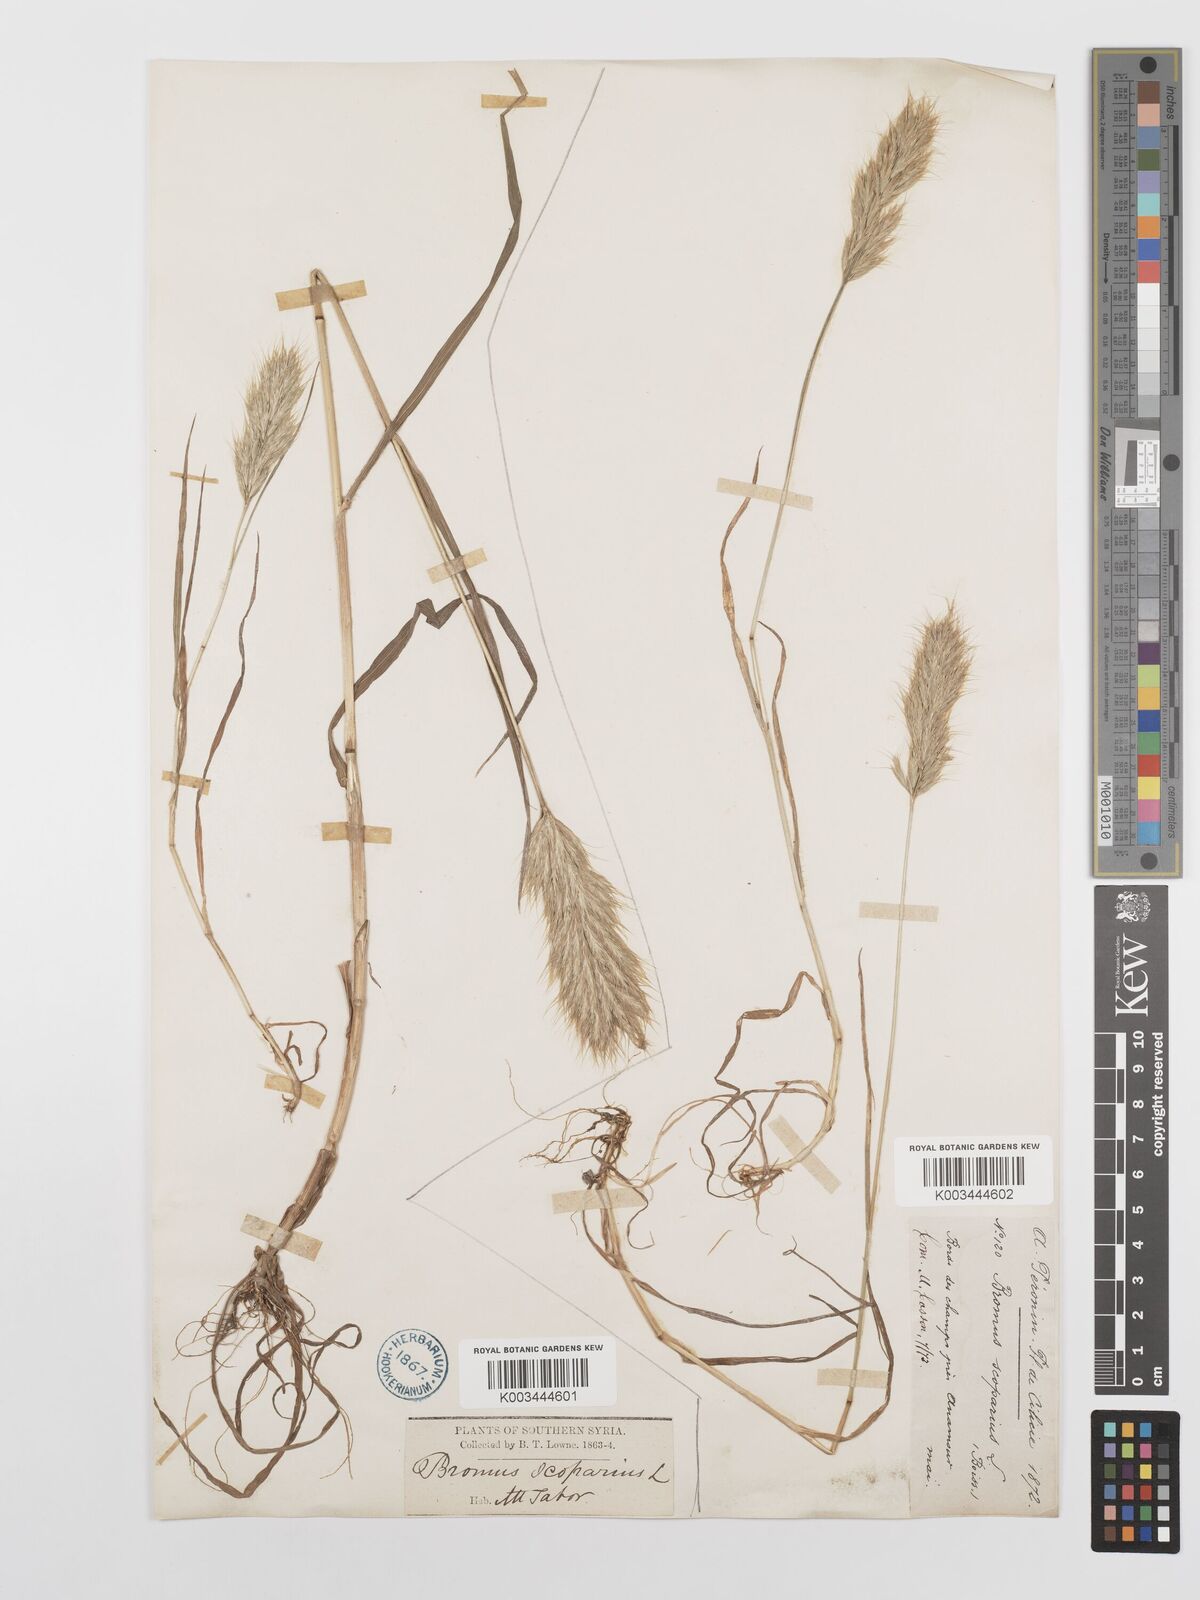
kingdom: Plantae
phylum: Tracheophyta
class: Liliopsida
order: Poales
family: Poaceae
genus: Bromus
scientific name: Bromus scoparius
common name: Broom brome
